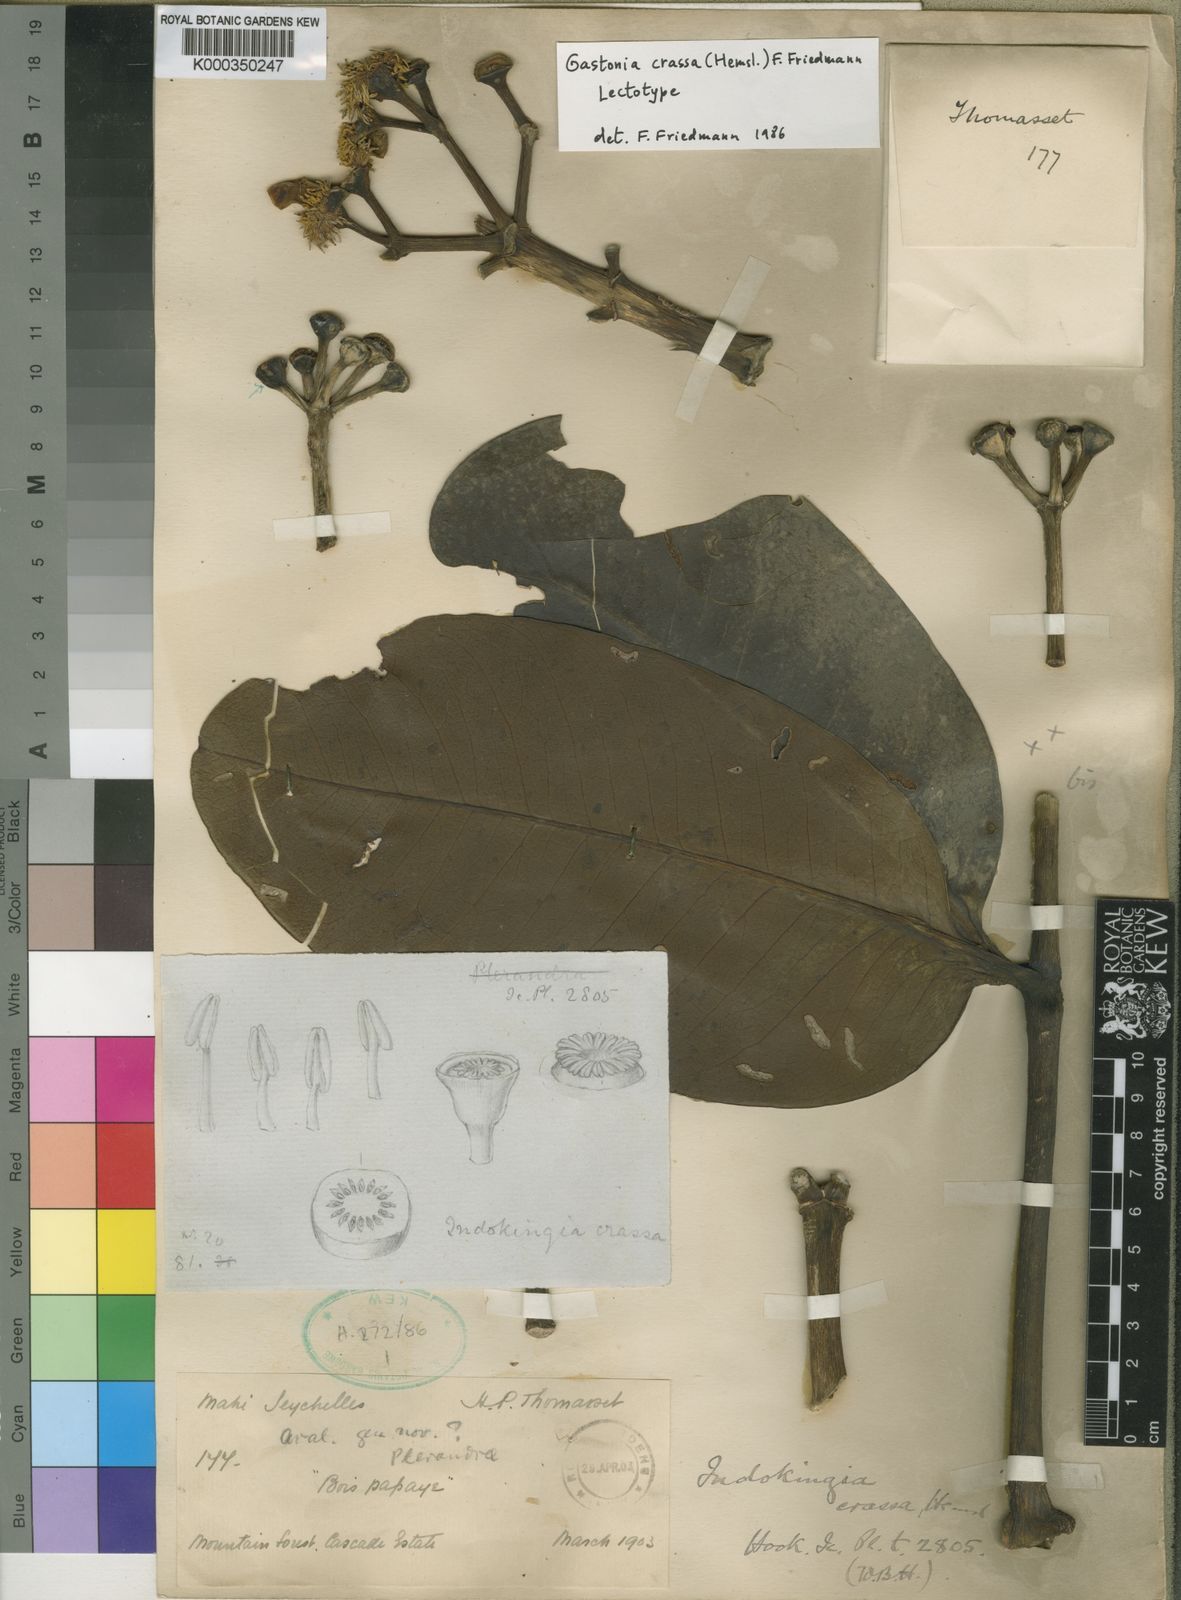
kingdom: Plantae
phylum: Tracheophyta
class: Magnoliopsida
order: Apiales
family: Araliaceae
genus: Polyscias
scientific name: Polyscias crassa
